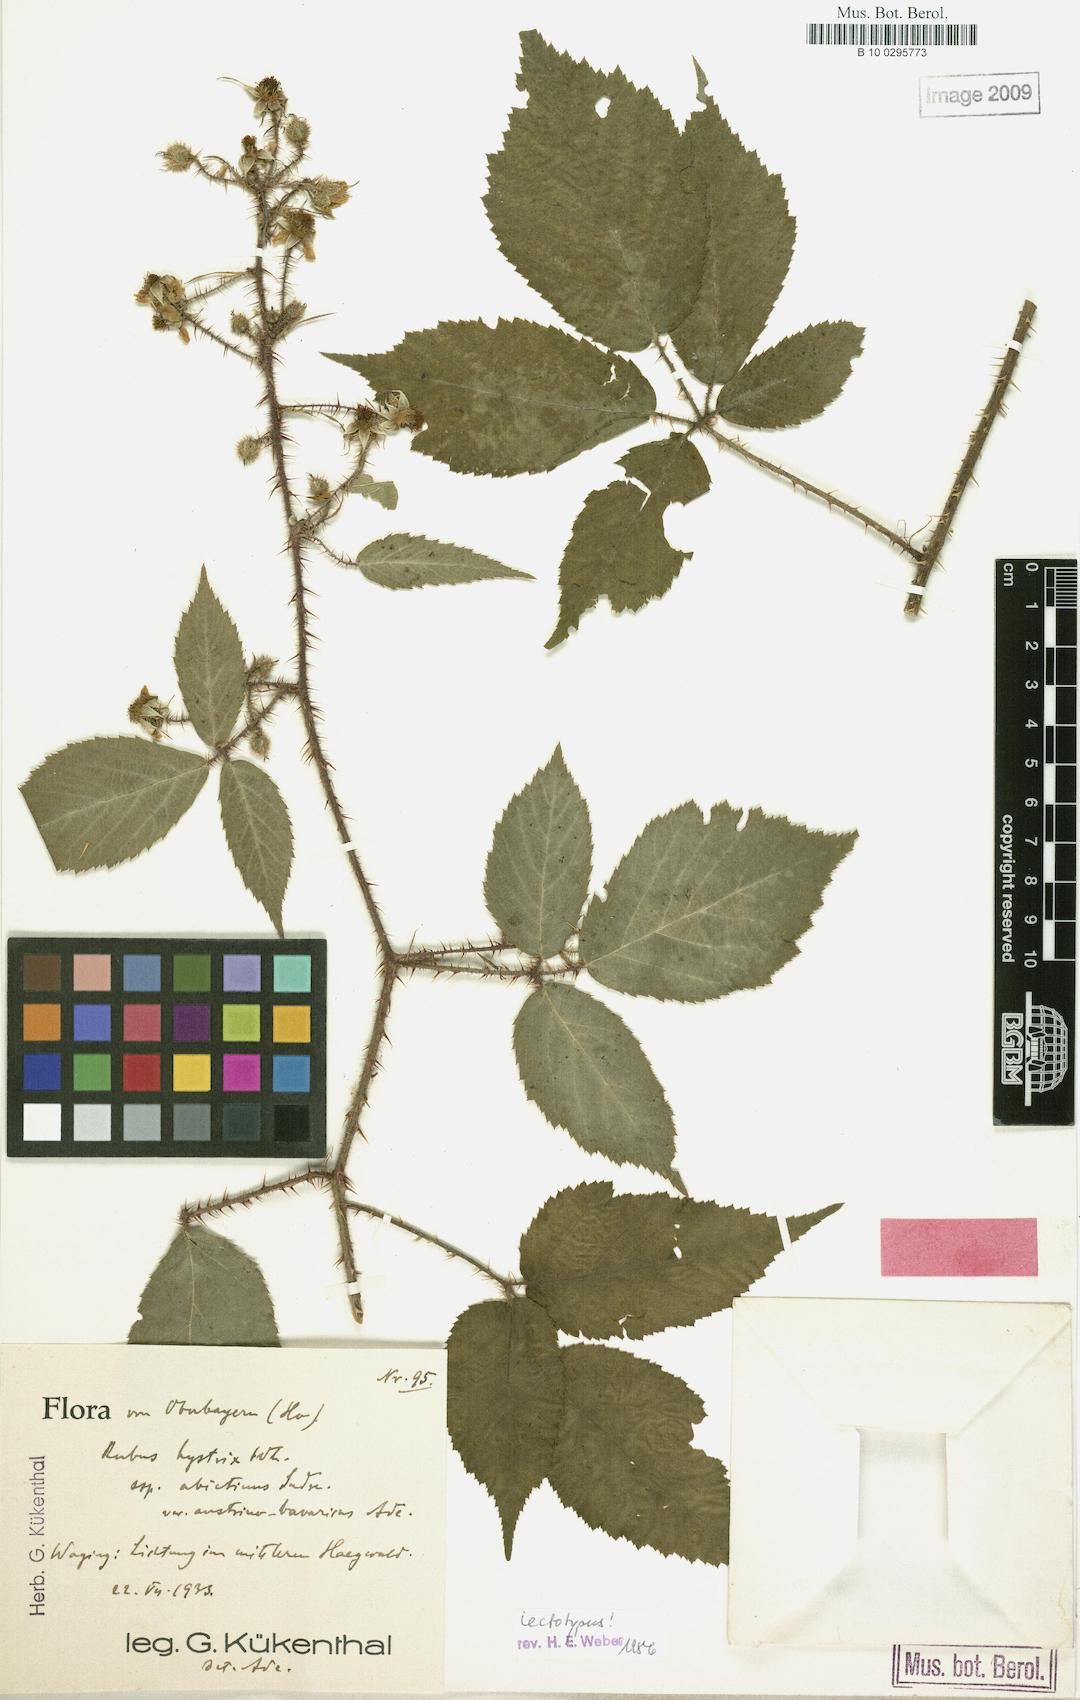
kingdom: Plantae
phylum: Tracheophyta
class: Magnoliopsida
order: Rosales
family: Rosaceae
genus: Rubus
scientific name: Rubus
